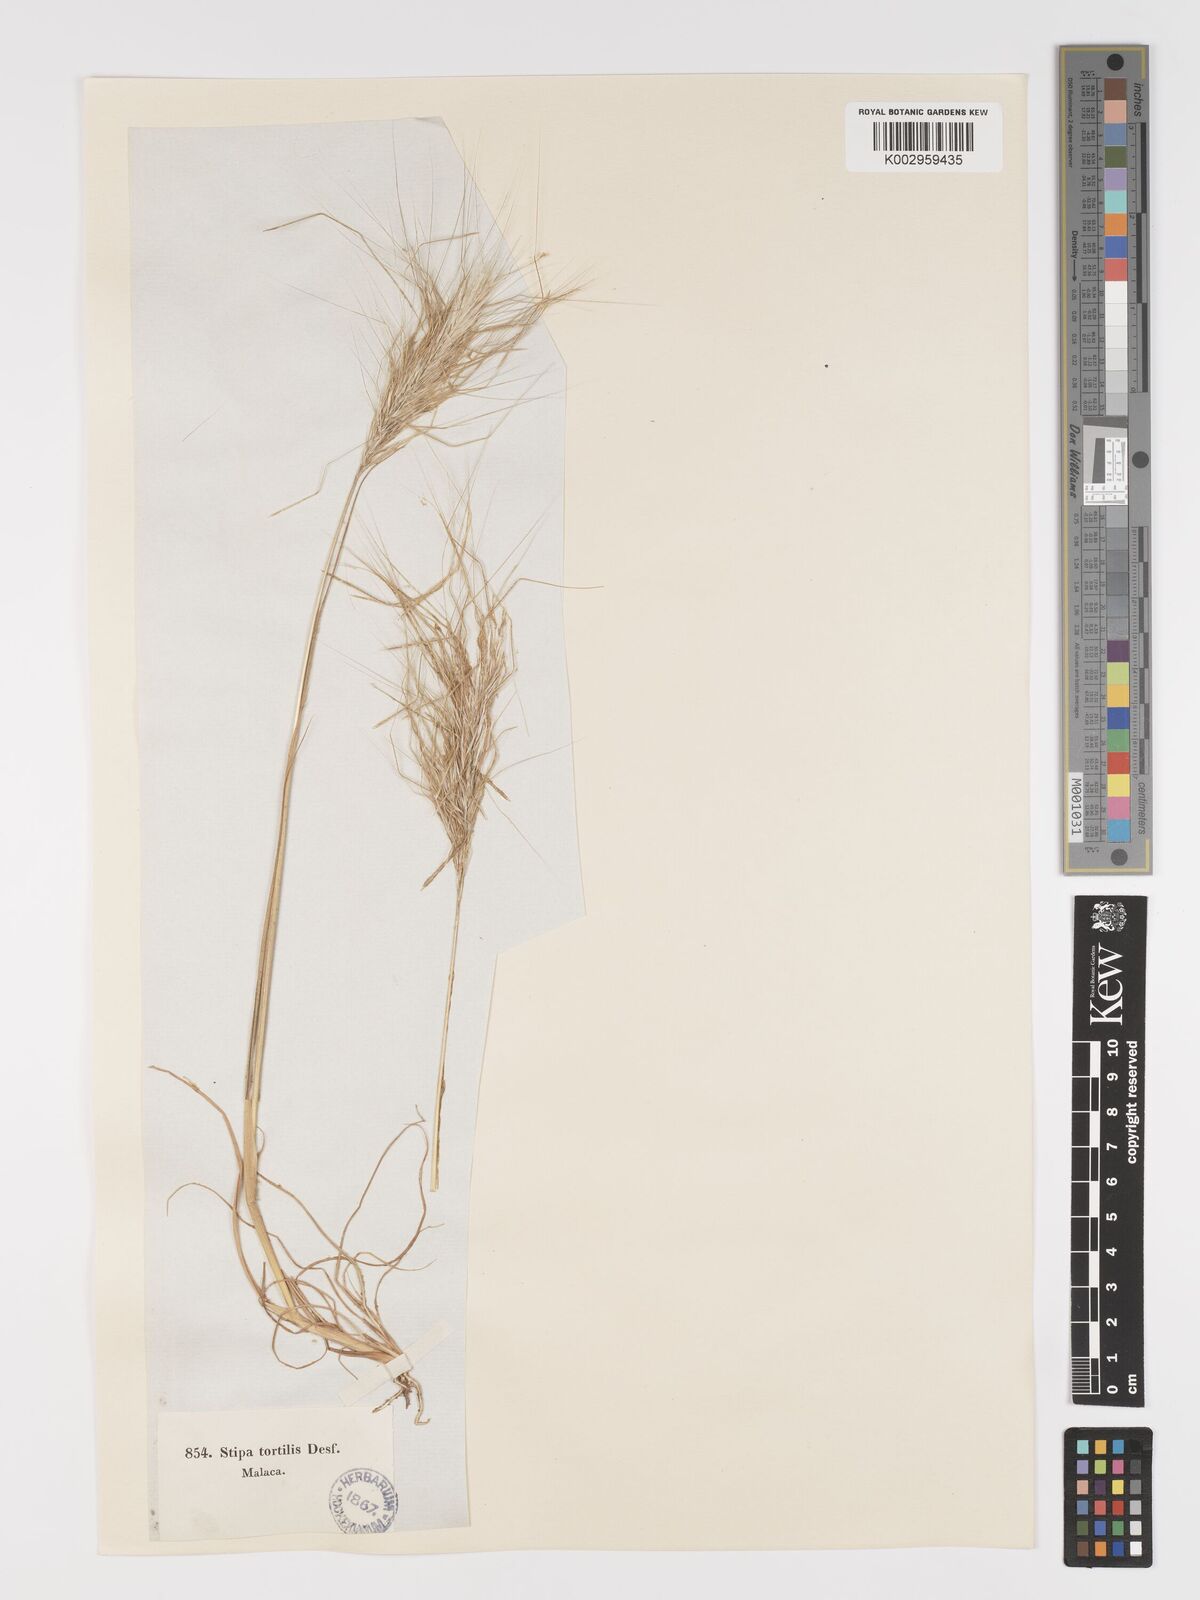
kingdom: Plantae
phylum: Tracheophyta
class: Liliopsida
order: Poales
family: Poaceae
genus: Stipa
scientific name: Stipa
